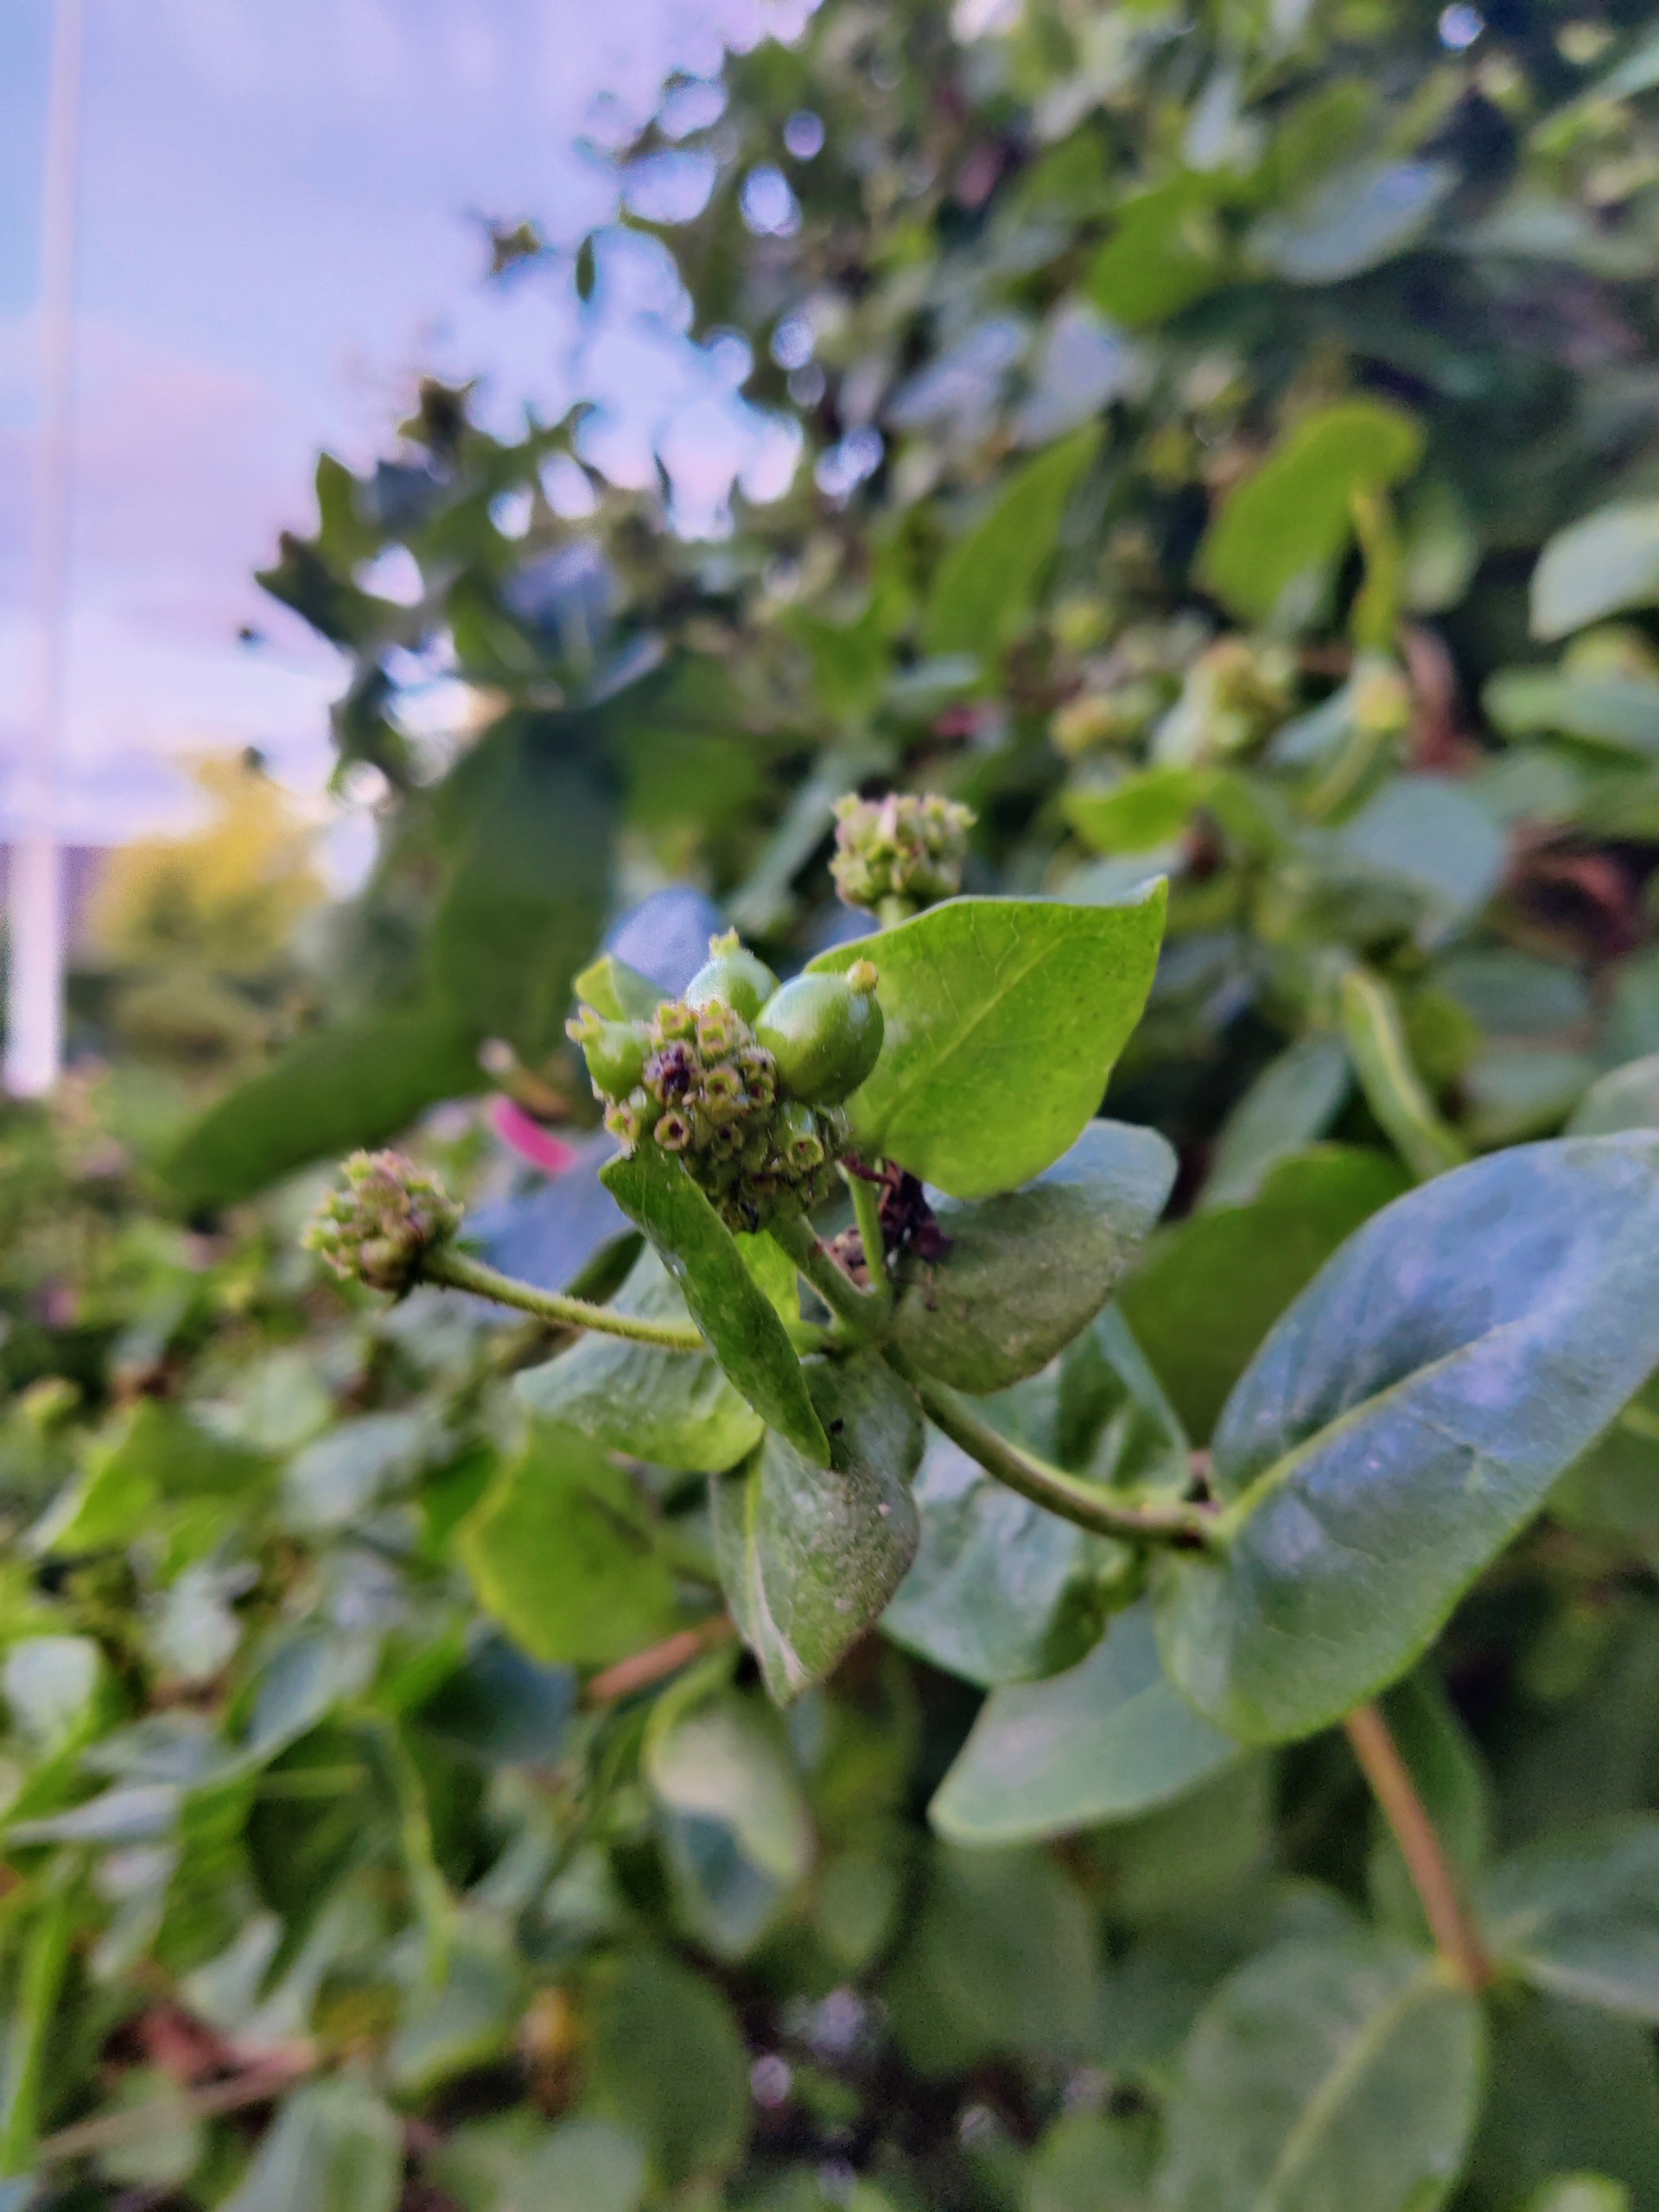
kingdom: Plantae
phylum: Tracheophyta
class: Magnoliopsida
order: Dipsacales
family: Caprifoliaceae
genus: Lonicera
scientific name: Lonicera periclymenum
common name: Almindelig gedeblad
